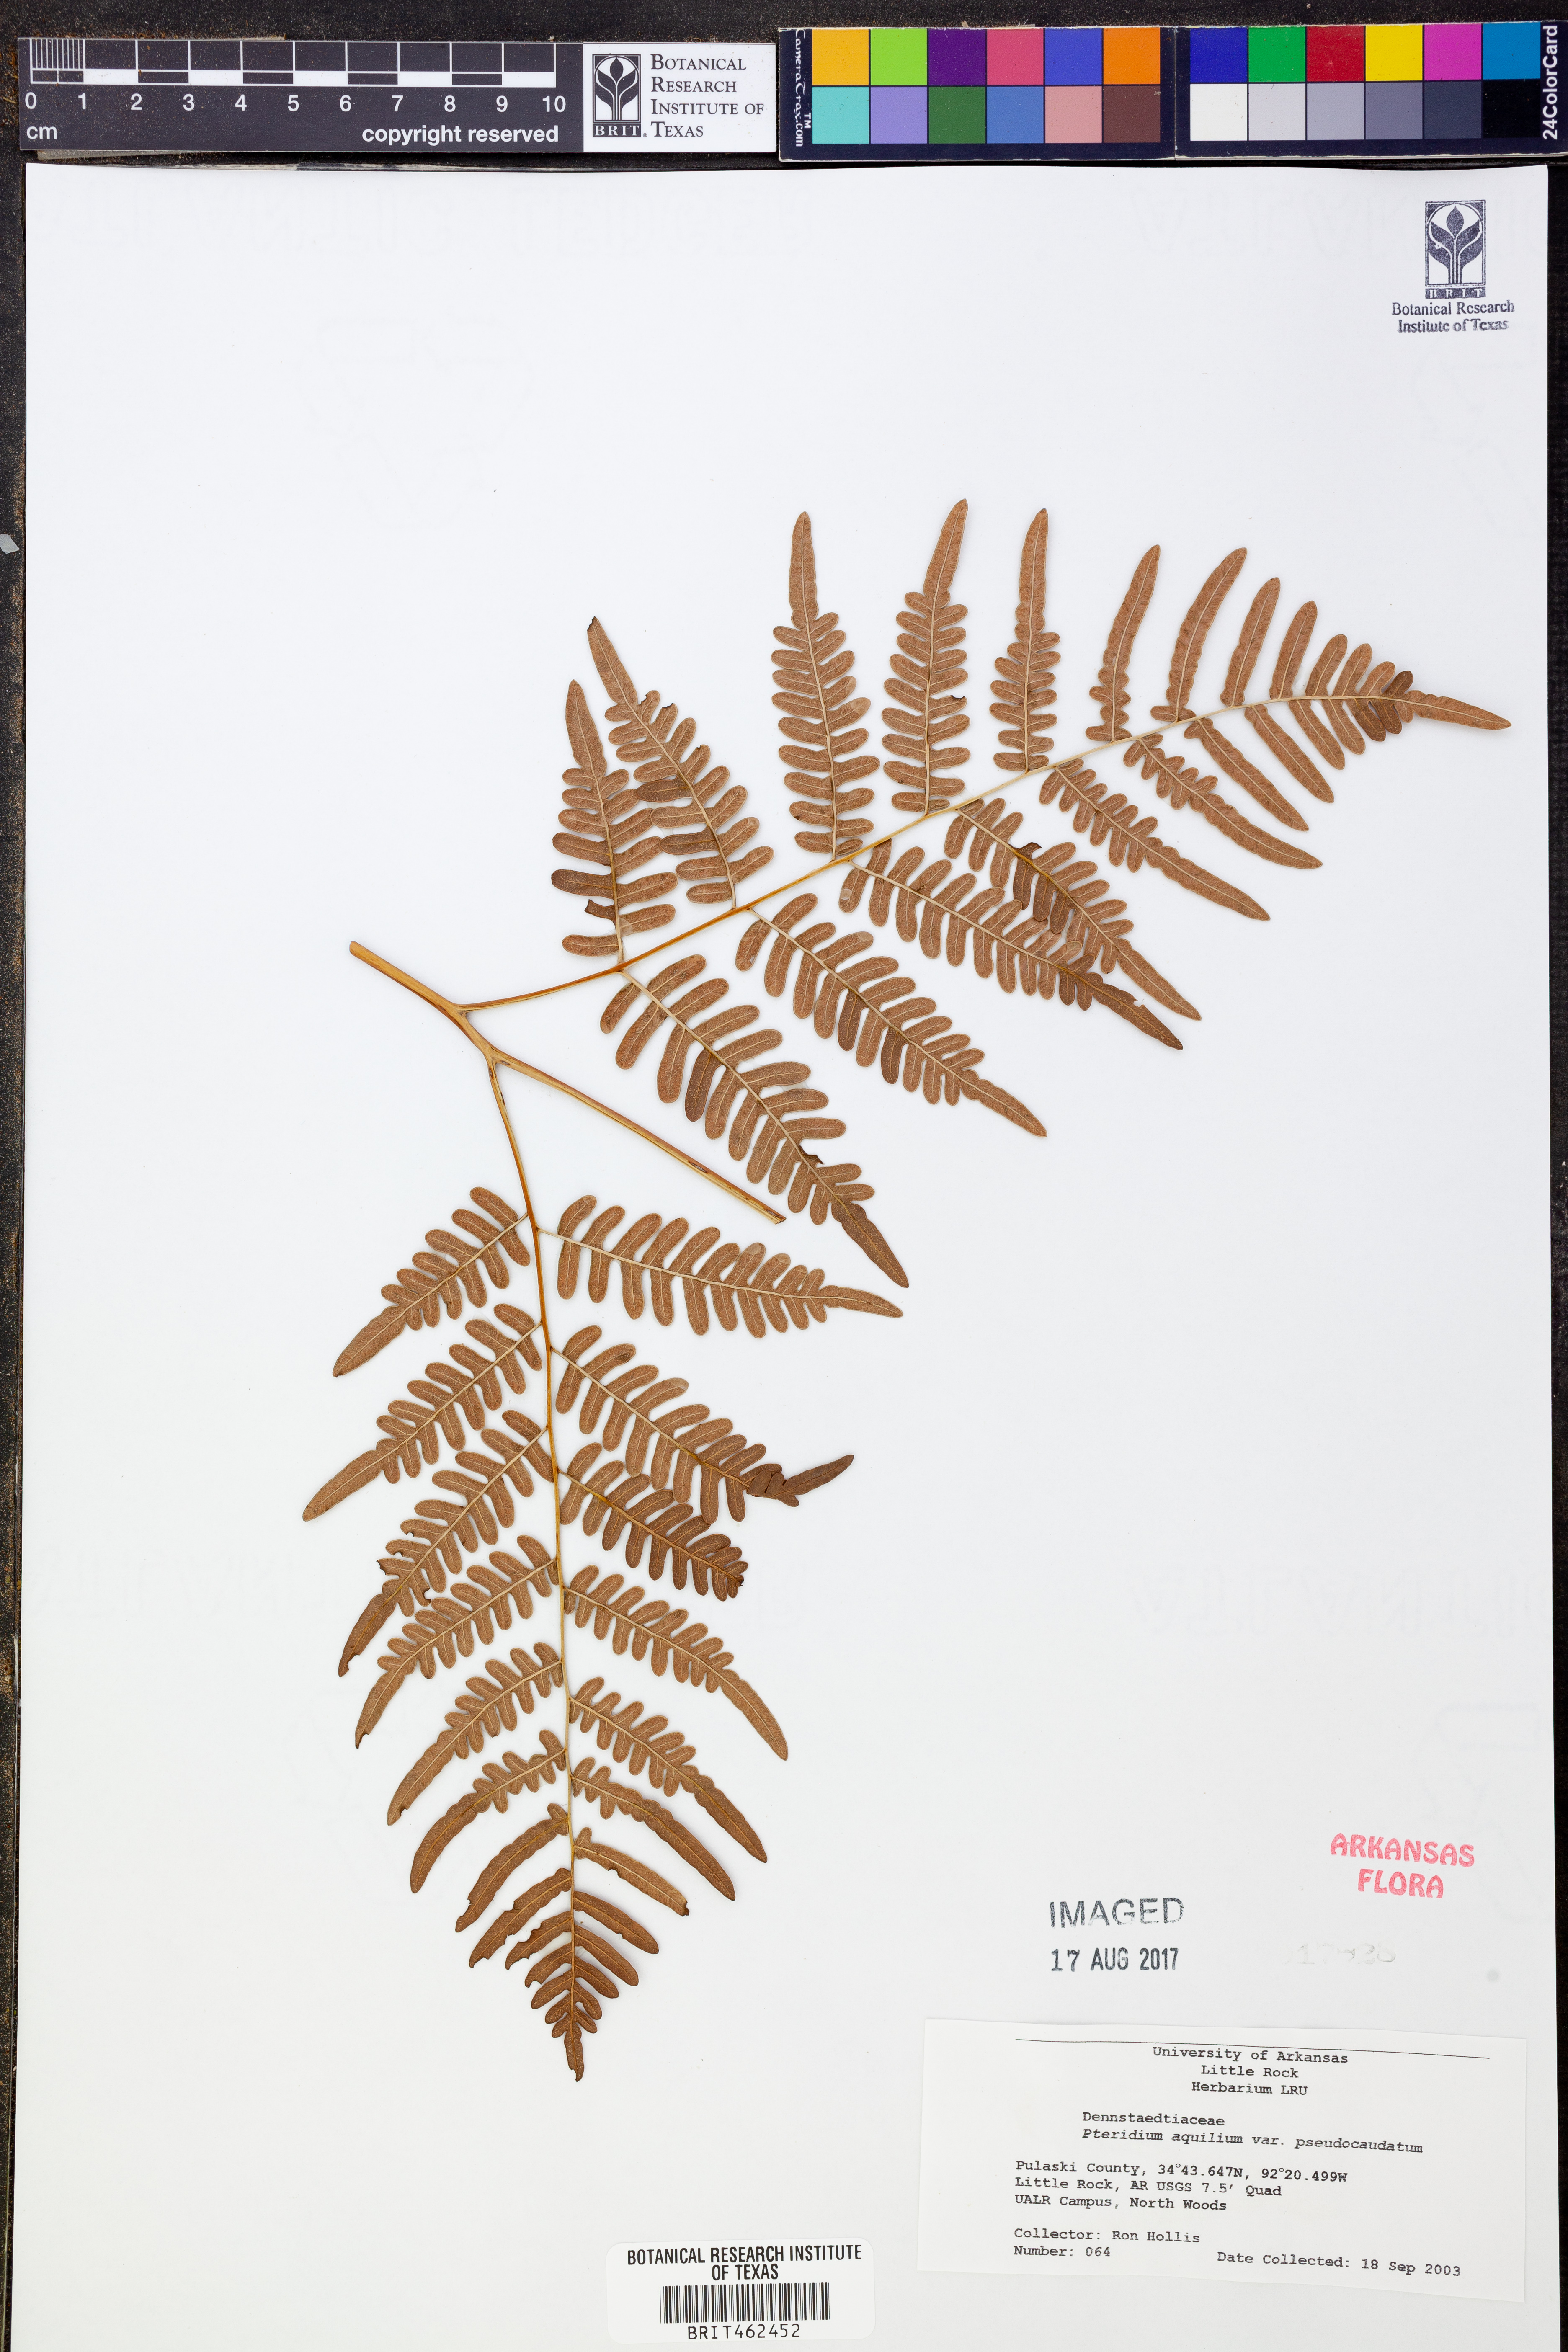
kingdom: Plantae
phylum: Tracheophyta
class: Polypodiopsida
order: Polypodiales
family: Dennstaedtiaceae
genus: Pteridium
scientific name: Pteridium aquilinum
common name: Bracken
